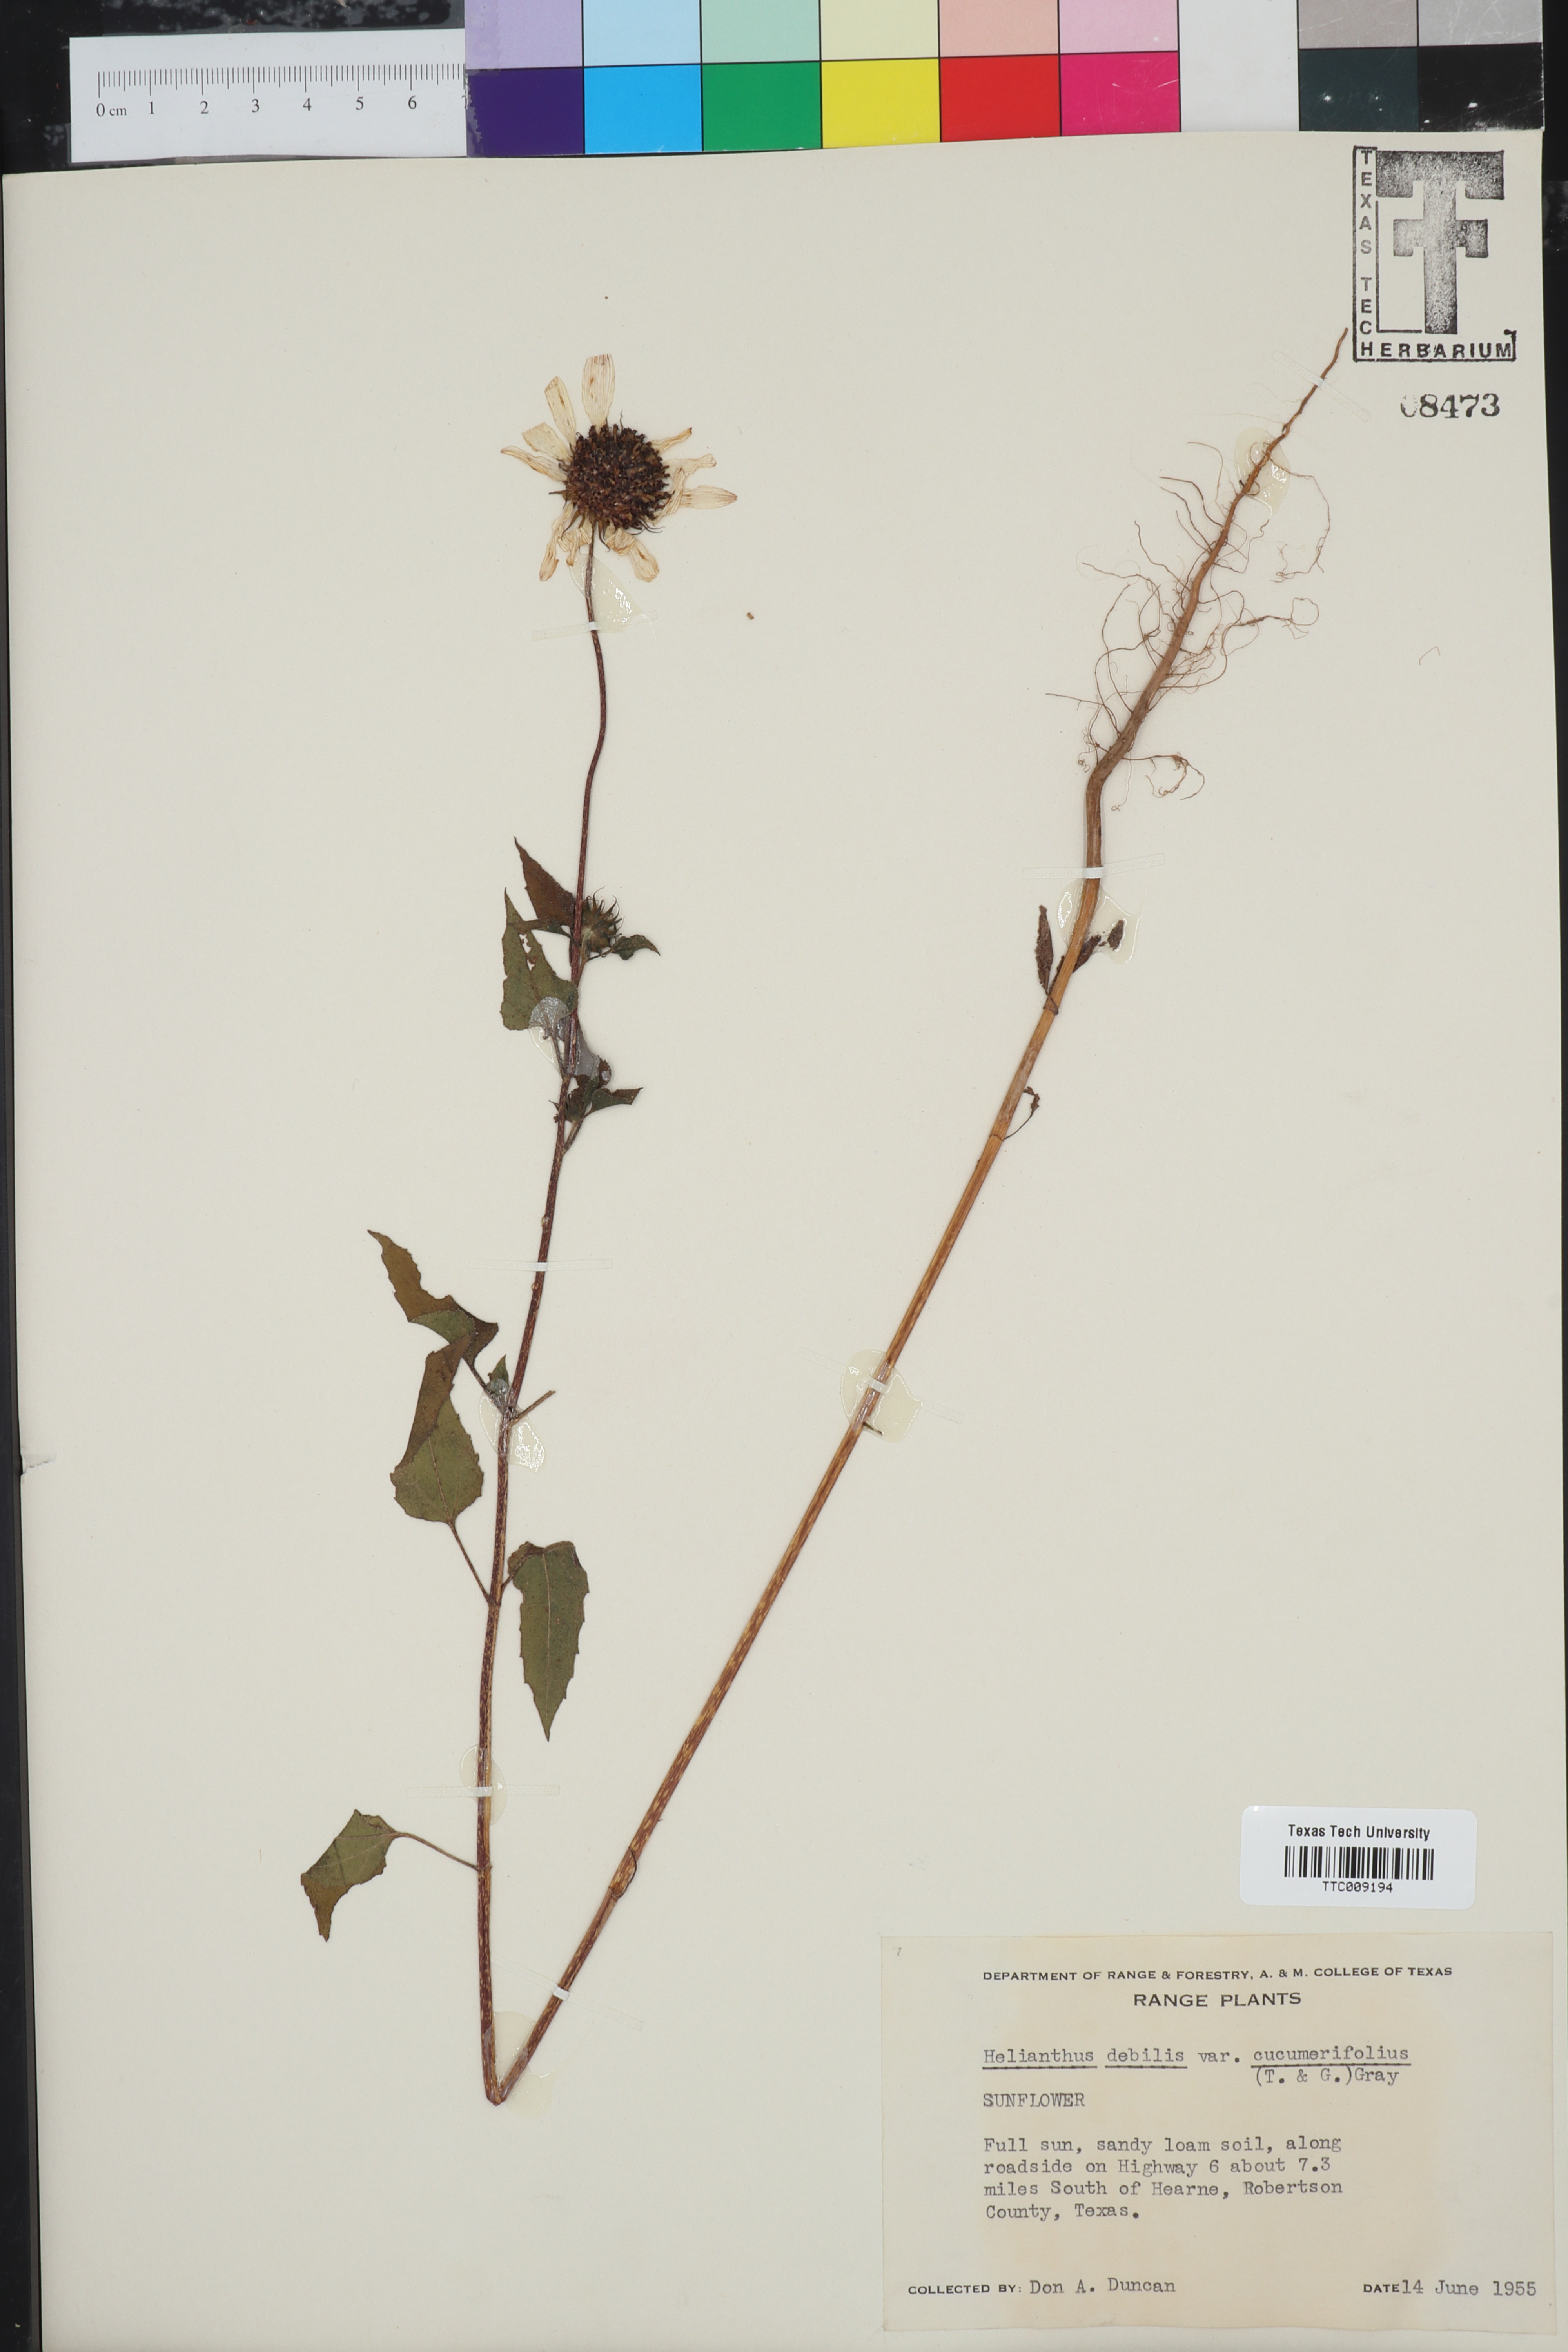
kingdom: Plantae
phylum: Tracheophyta
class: Magnoliopsida
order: Asterales
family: Asteraceae
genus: Helianthus
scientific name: Helianthus debilis
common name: Weak sunflower
